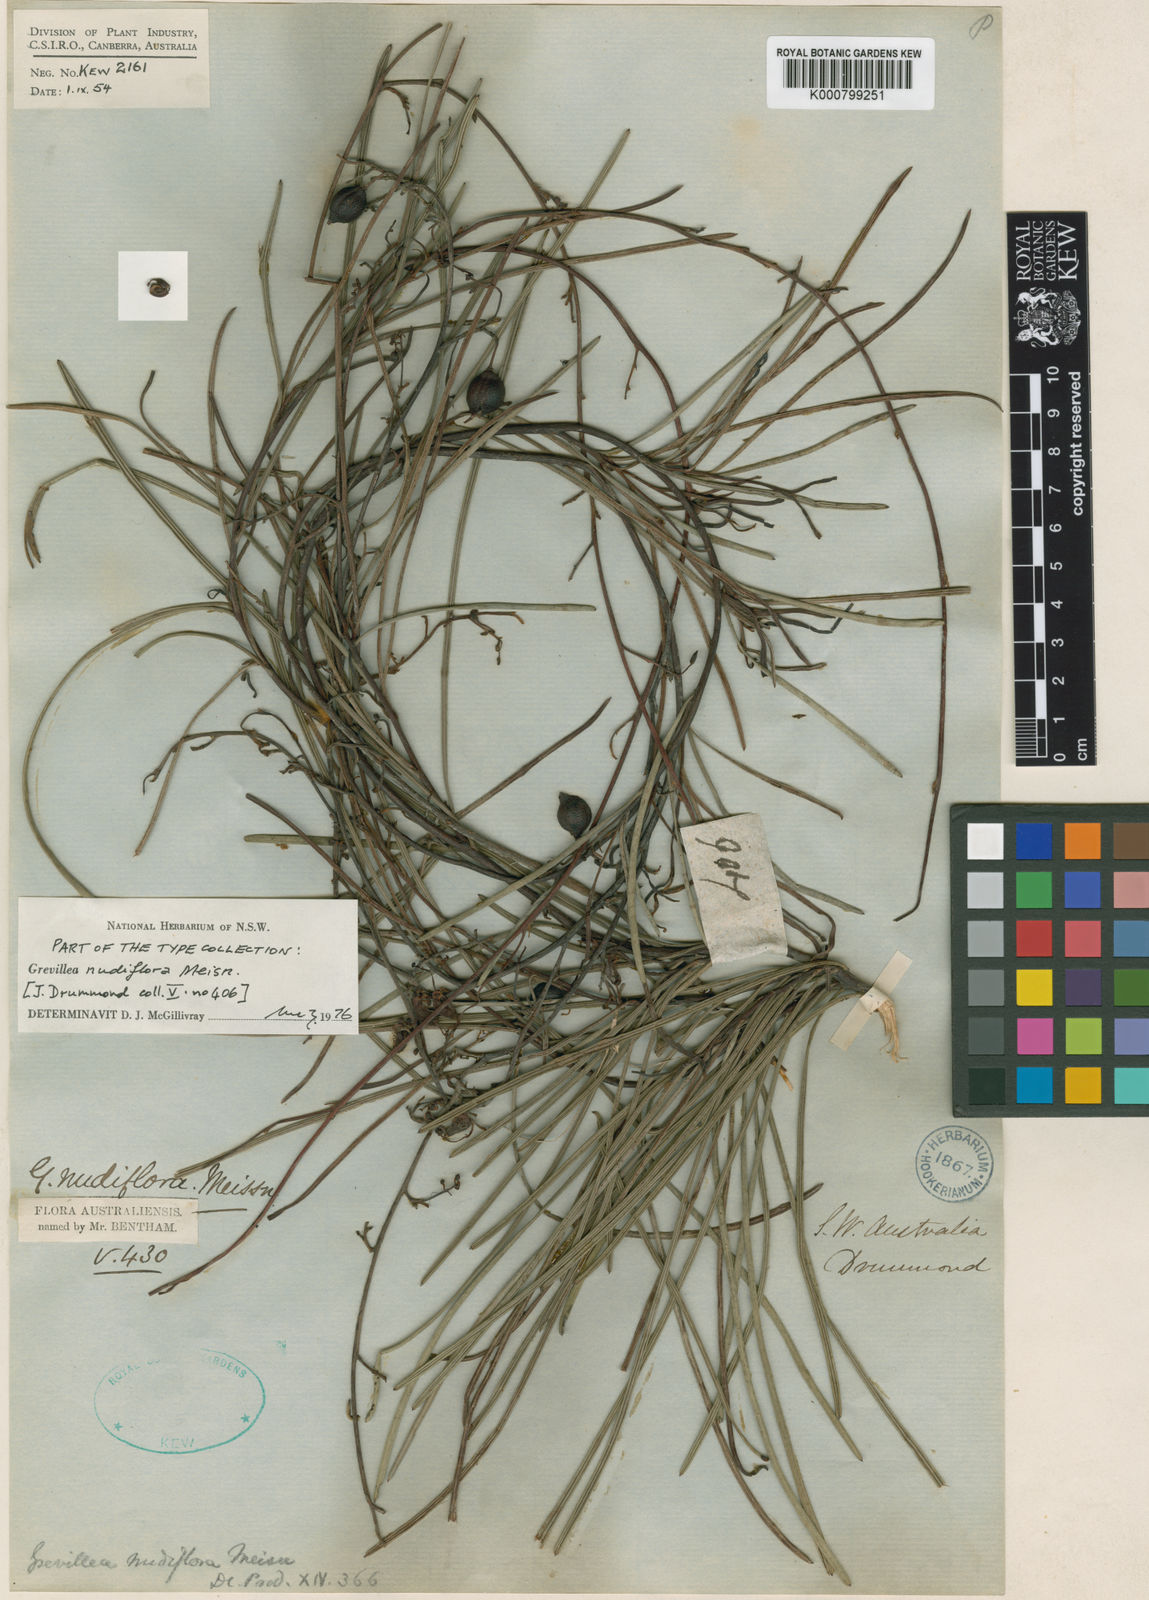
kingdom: Plantae
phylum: Tracheophyta
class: Magnoliopsida
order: Proteales
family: Proteaceae
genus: Grevillea
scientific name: Grevillea nudiflora
